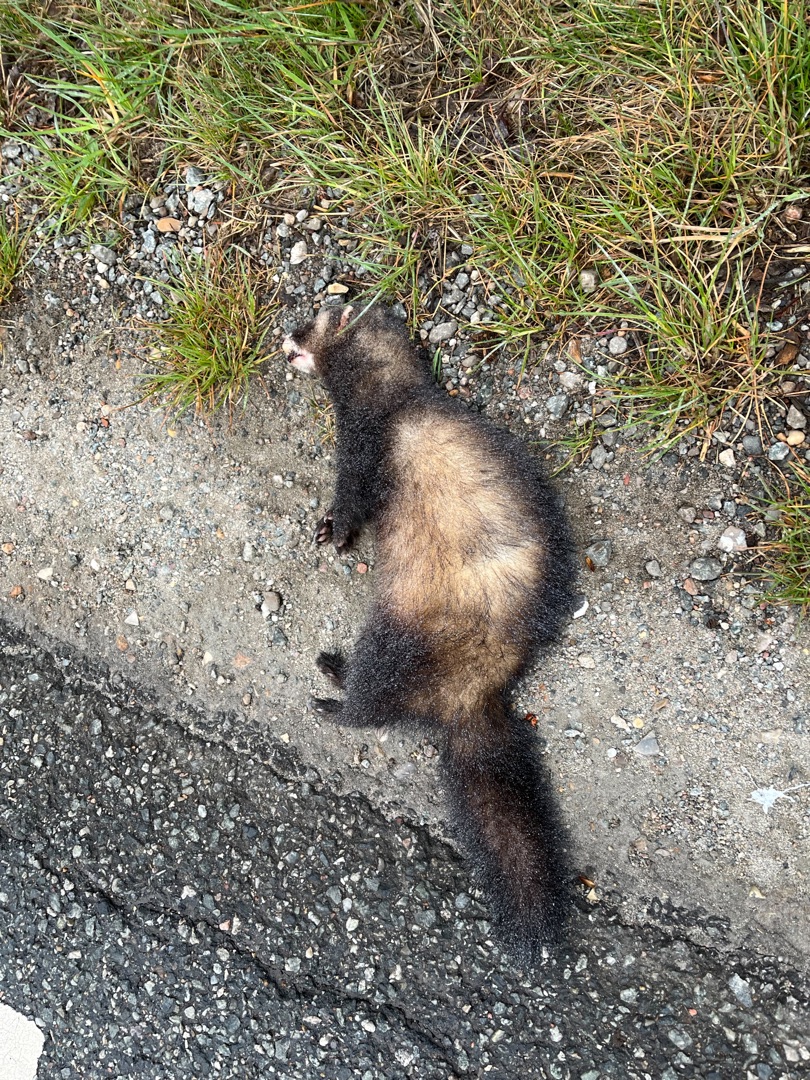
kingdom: Animalia
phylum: Chordata
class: Mammalia
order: Carnivora
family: Mustelidae
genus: Mustela
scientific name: Mustela putorius
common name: Ilder
